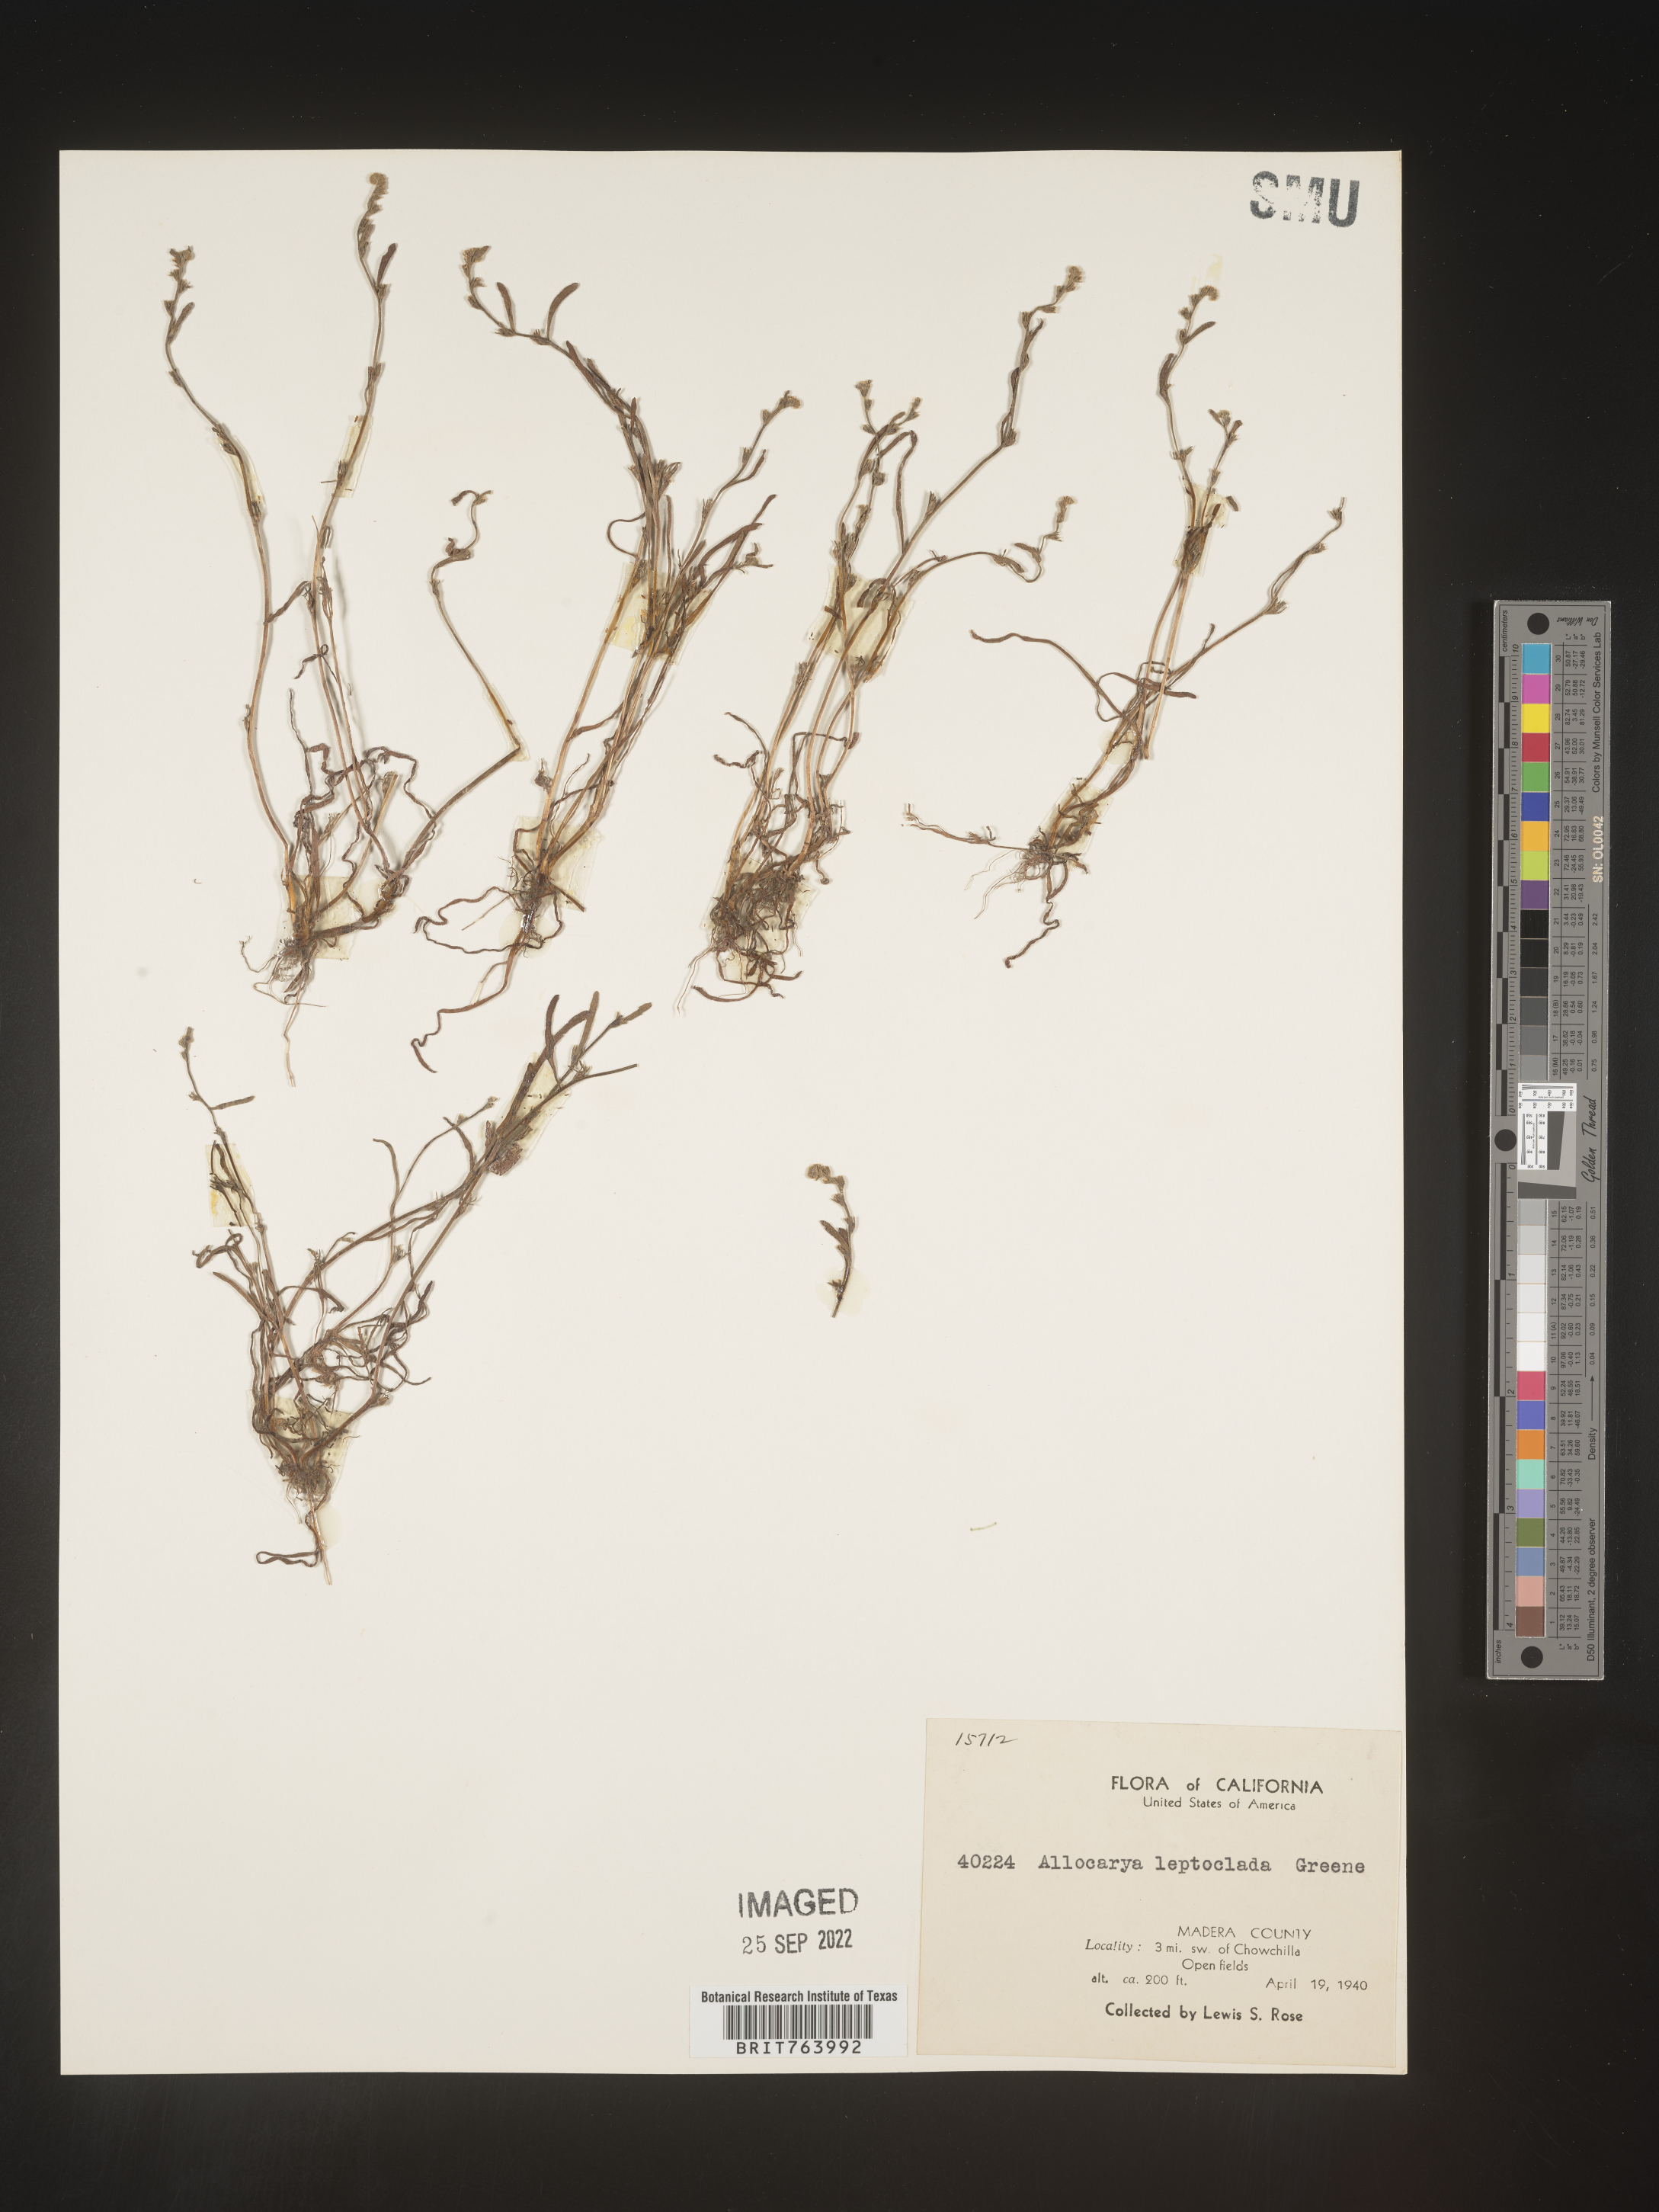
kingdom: Plantae
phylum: Tracheophyta
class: Magnoliopsida
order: Boraginales
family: Boraginaceae
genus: Plagiobothrys
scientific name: Plagiobothrys
